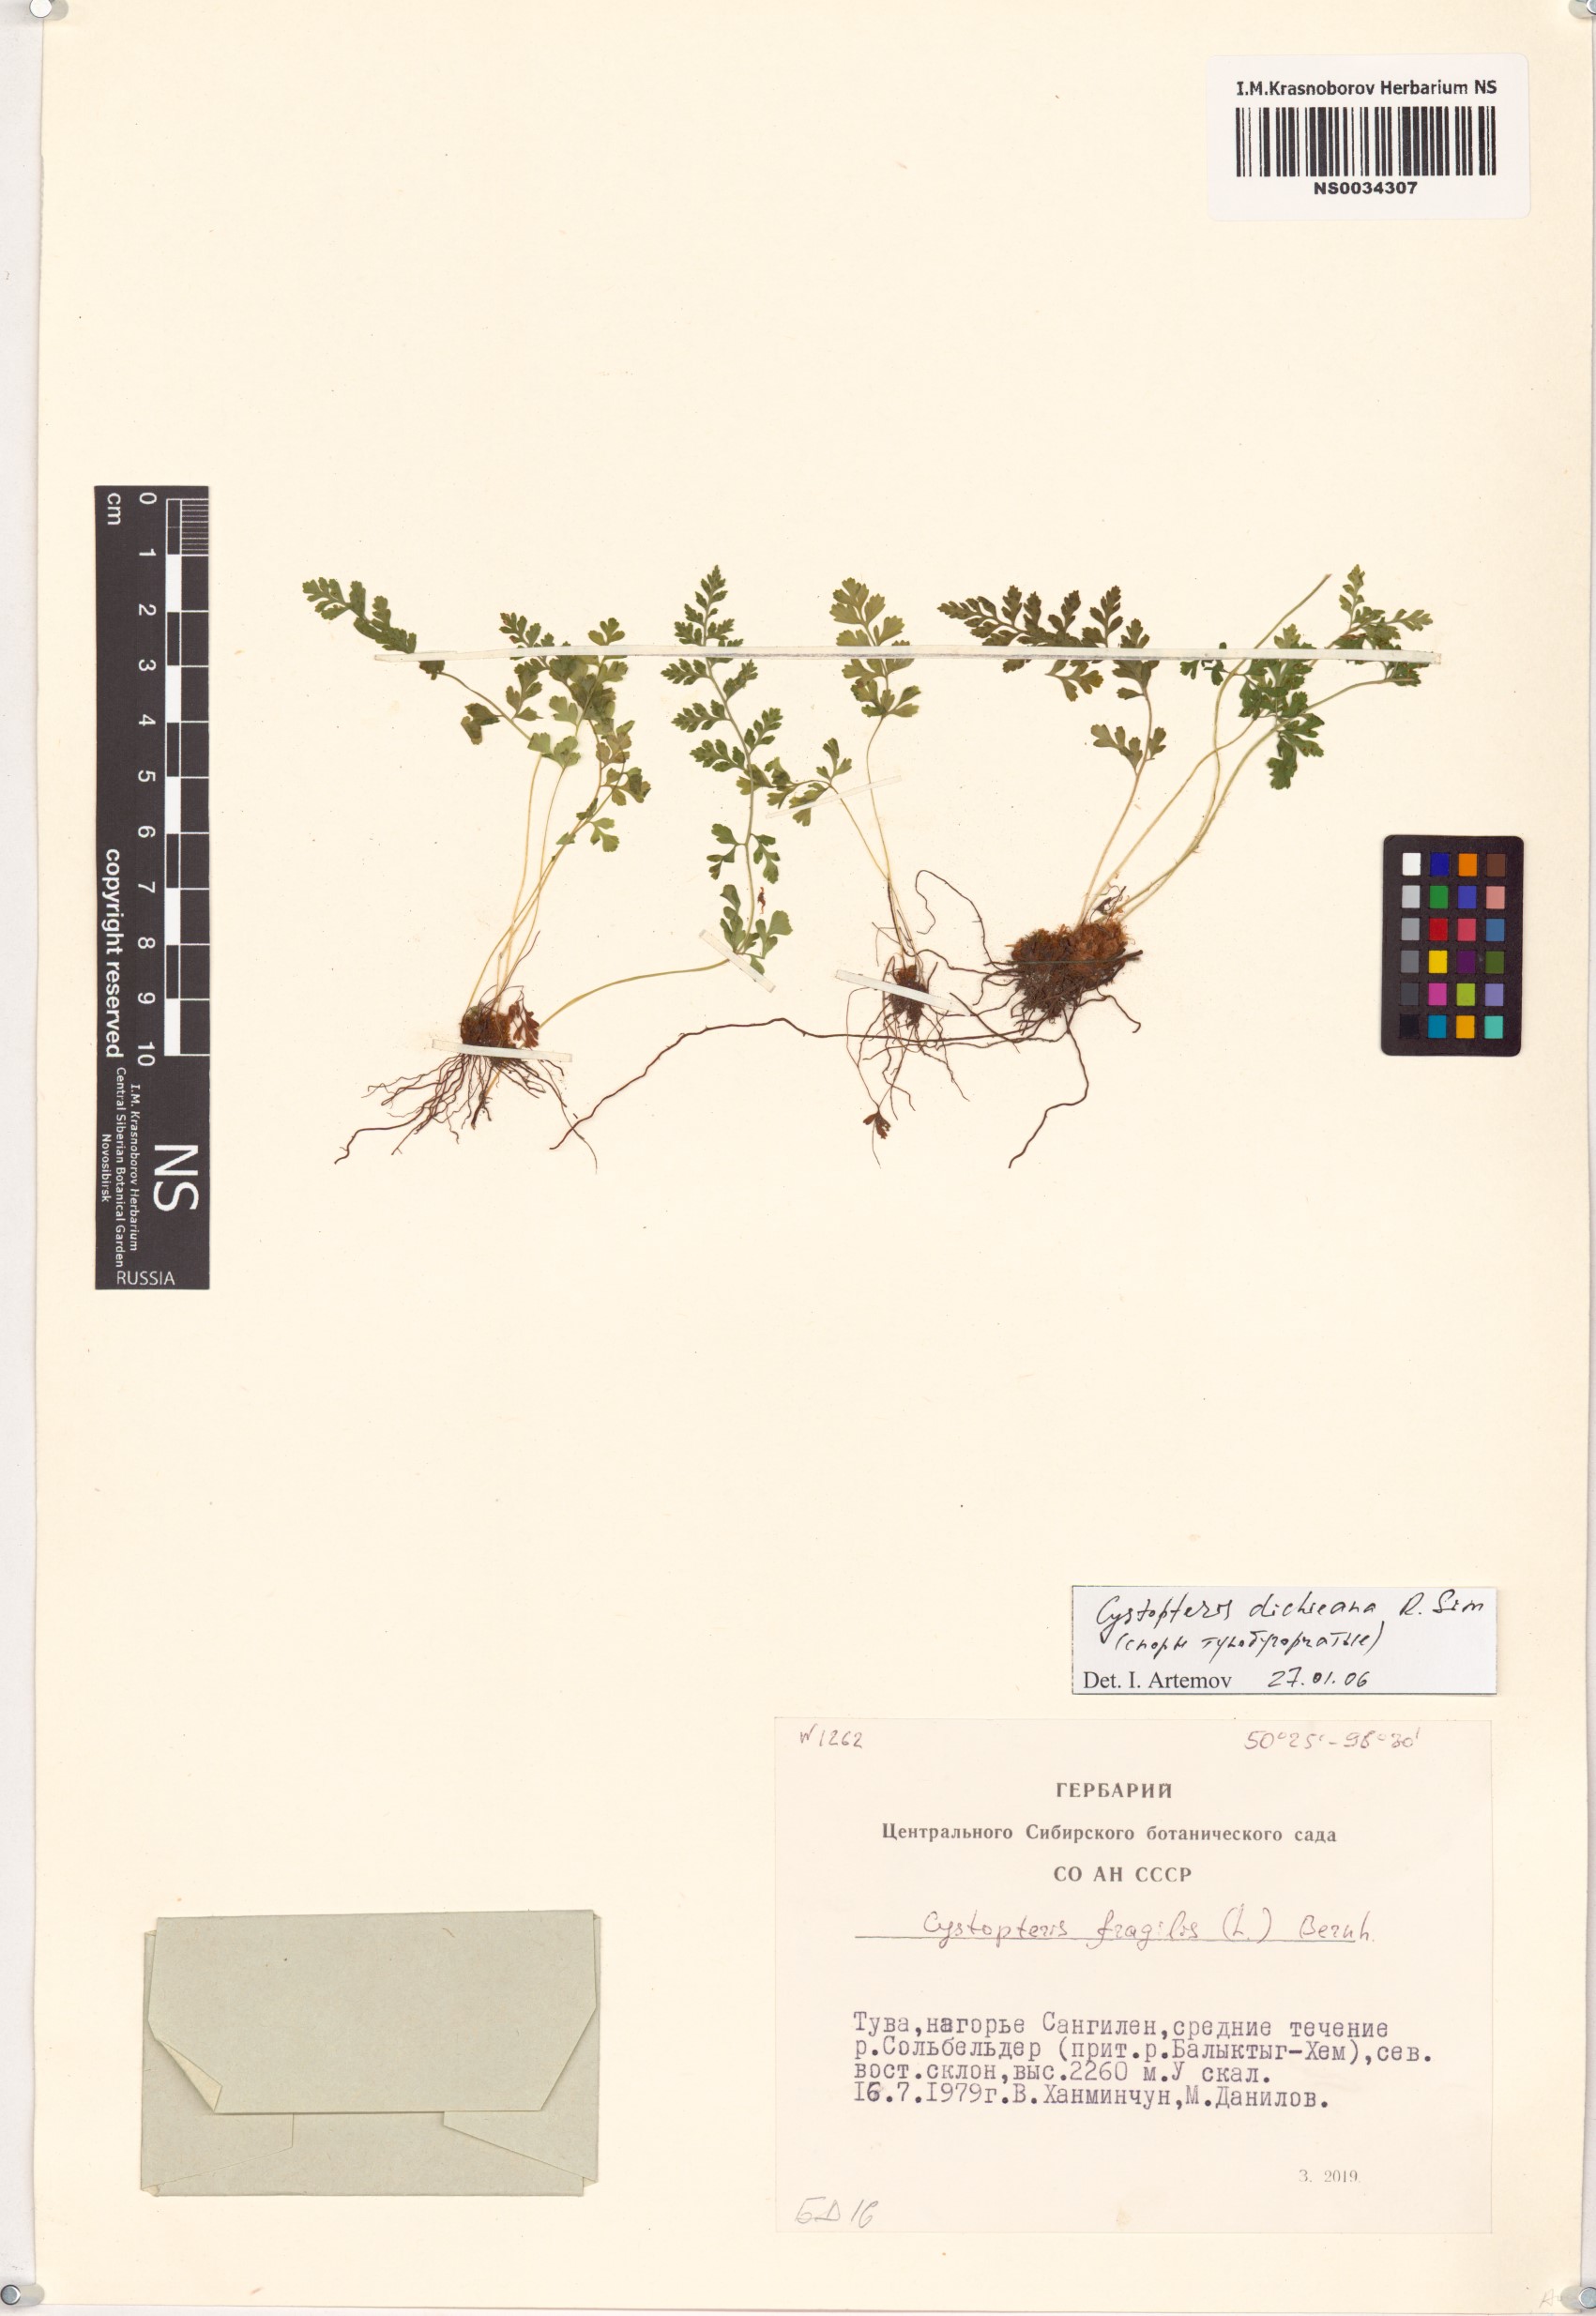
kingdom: Plantae
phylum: Tracheophyta
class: Polypodiopsida
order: Polypodiales
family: Cystopteridaceae
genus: Cystopteris
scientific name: Cystopteris dickieana
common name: Dickie's bladder-fern
